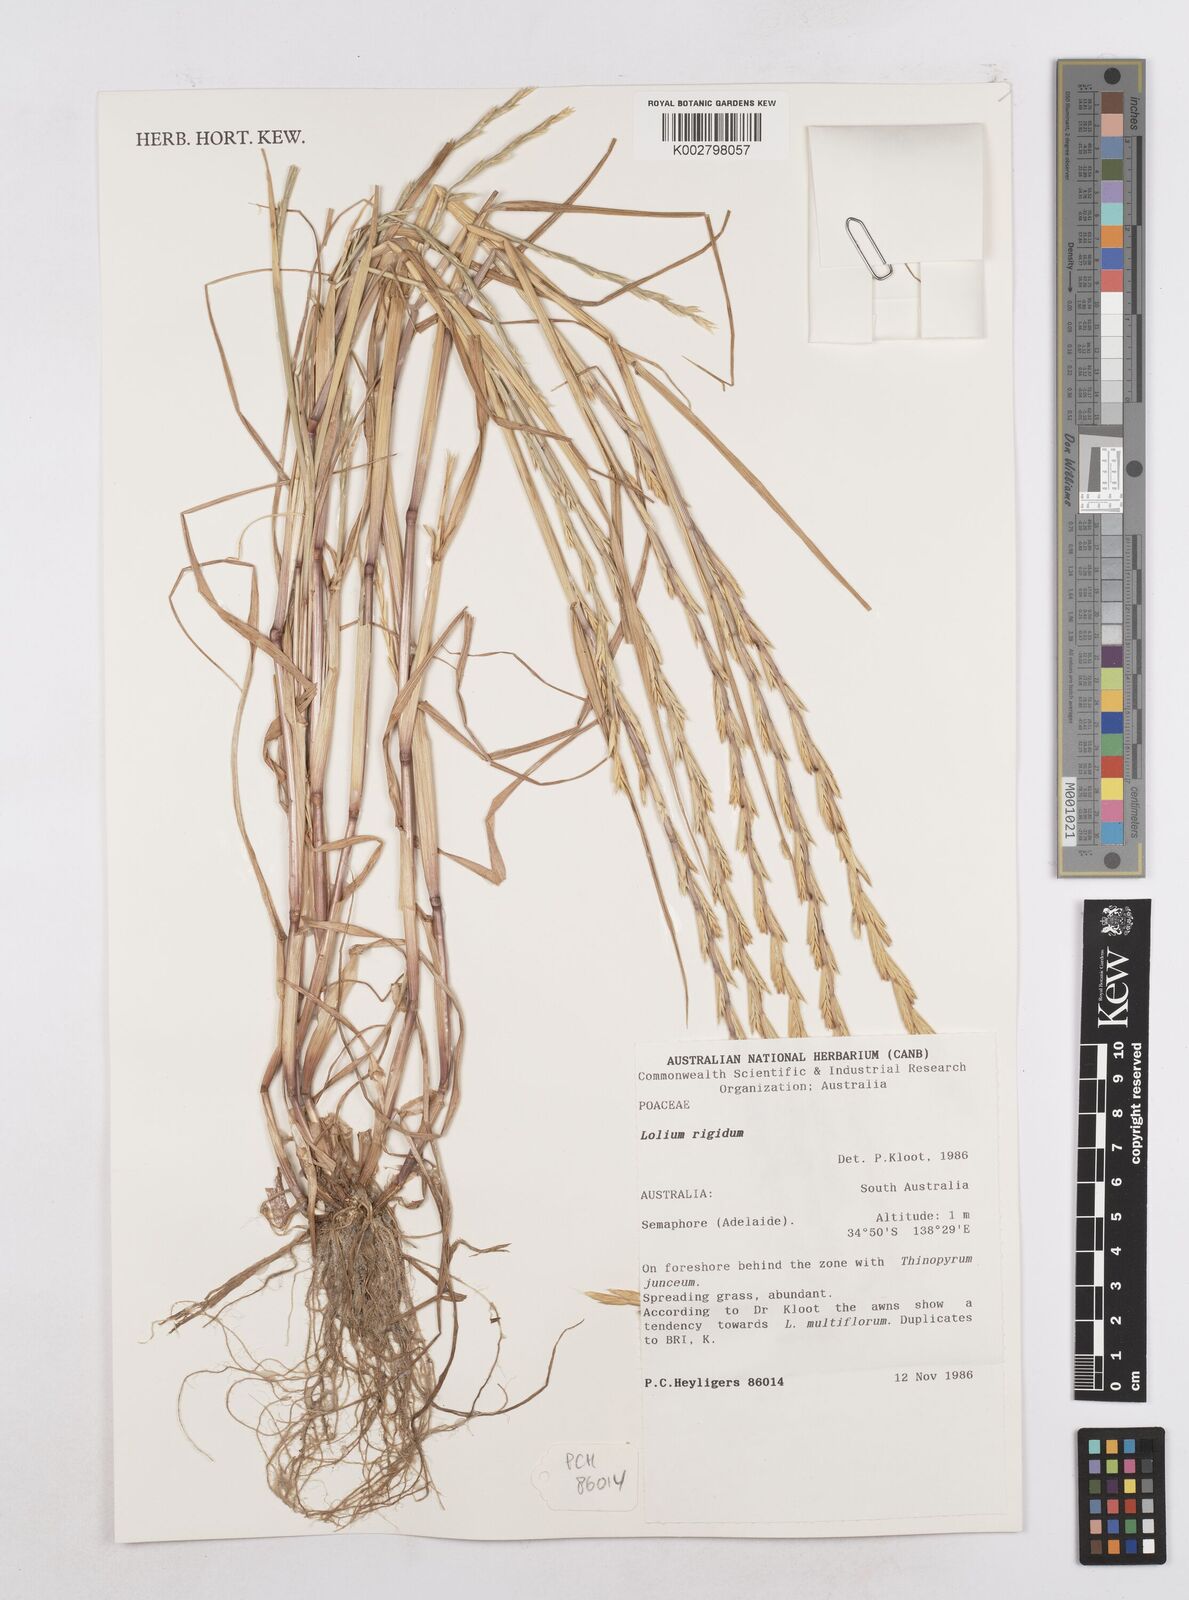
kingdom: Plantae
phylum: Tracheophyta
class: Liliopsida
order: Poales
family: Poaceae
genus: Lolium
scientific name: Lolium
